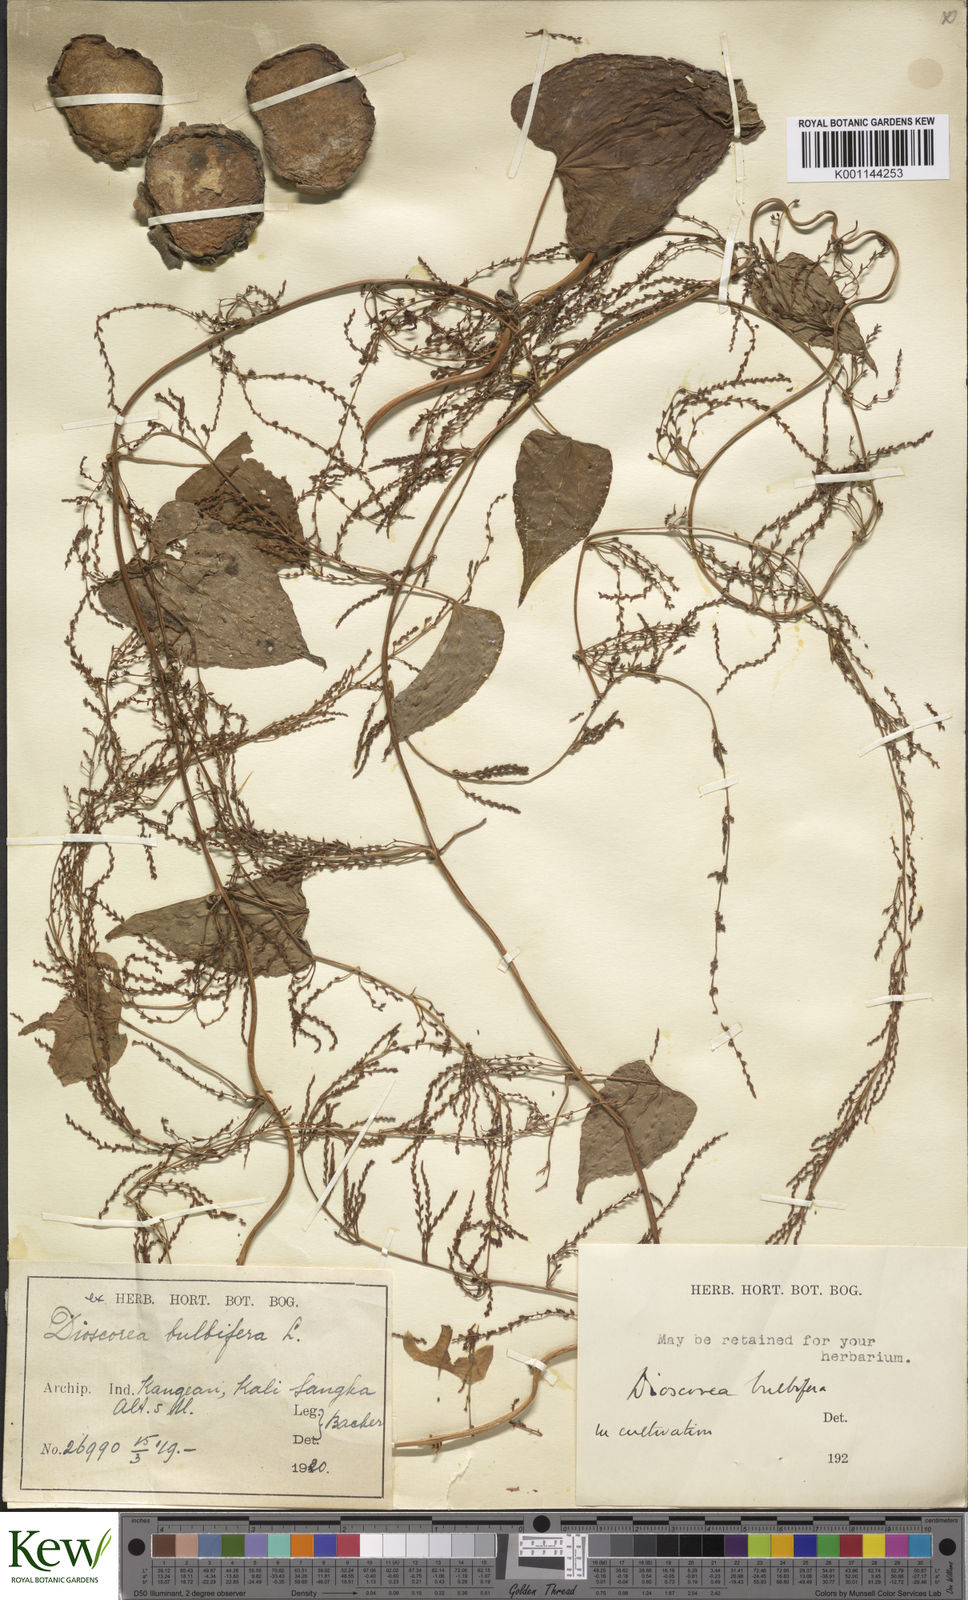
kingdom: Plantae
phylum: Tracheophyta
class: Liliopsida
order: Dioscoreales
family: Dioscoreaceae
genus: Dioscorea
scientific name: Dioscorea bulbifera
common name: Air yam
